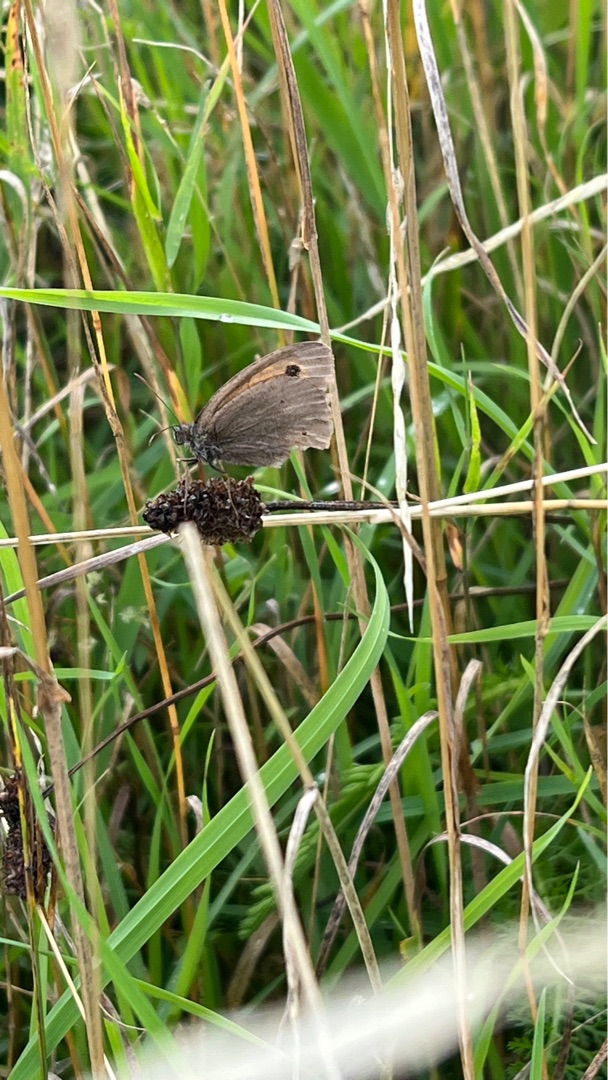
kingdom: Animalia
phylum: Arthropoda
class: Insecta
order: Lepidoptera
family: Nymphalidae
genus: Maniola
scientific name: Maniola jurtina
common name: Græsrandøje
